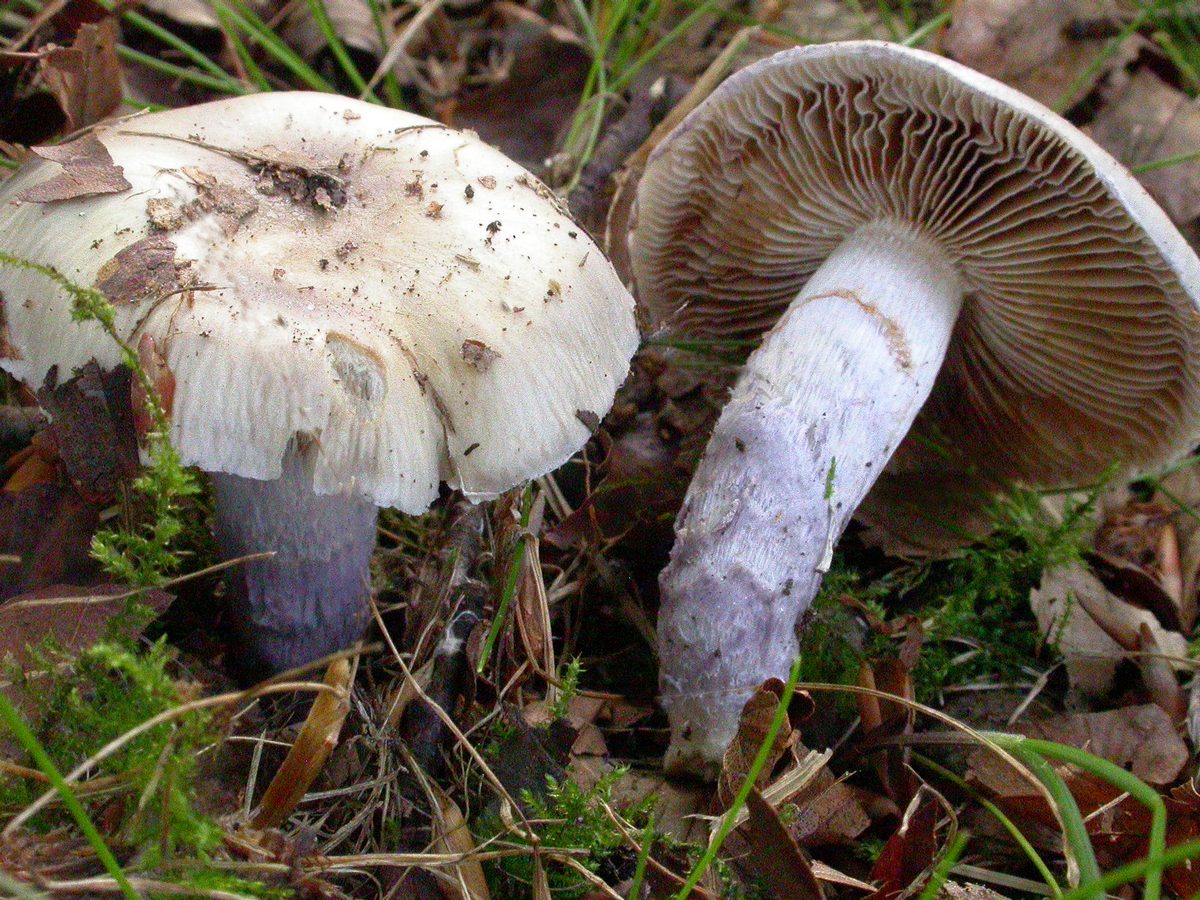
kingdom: Fungi
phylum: Basidiomycota
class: Agaricomycetes
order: Agaricales
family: Cortinariaceae
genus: Cortinarius
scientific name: Cortinarius elatior
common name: høj slørhat
